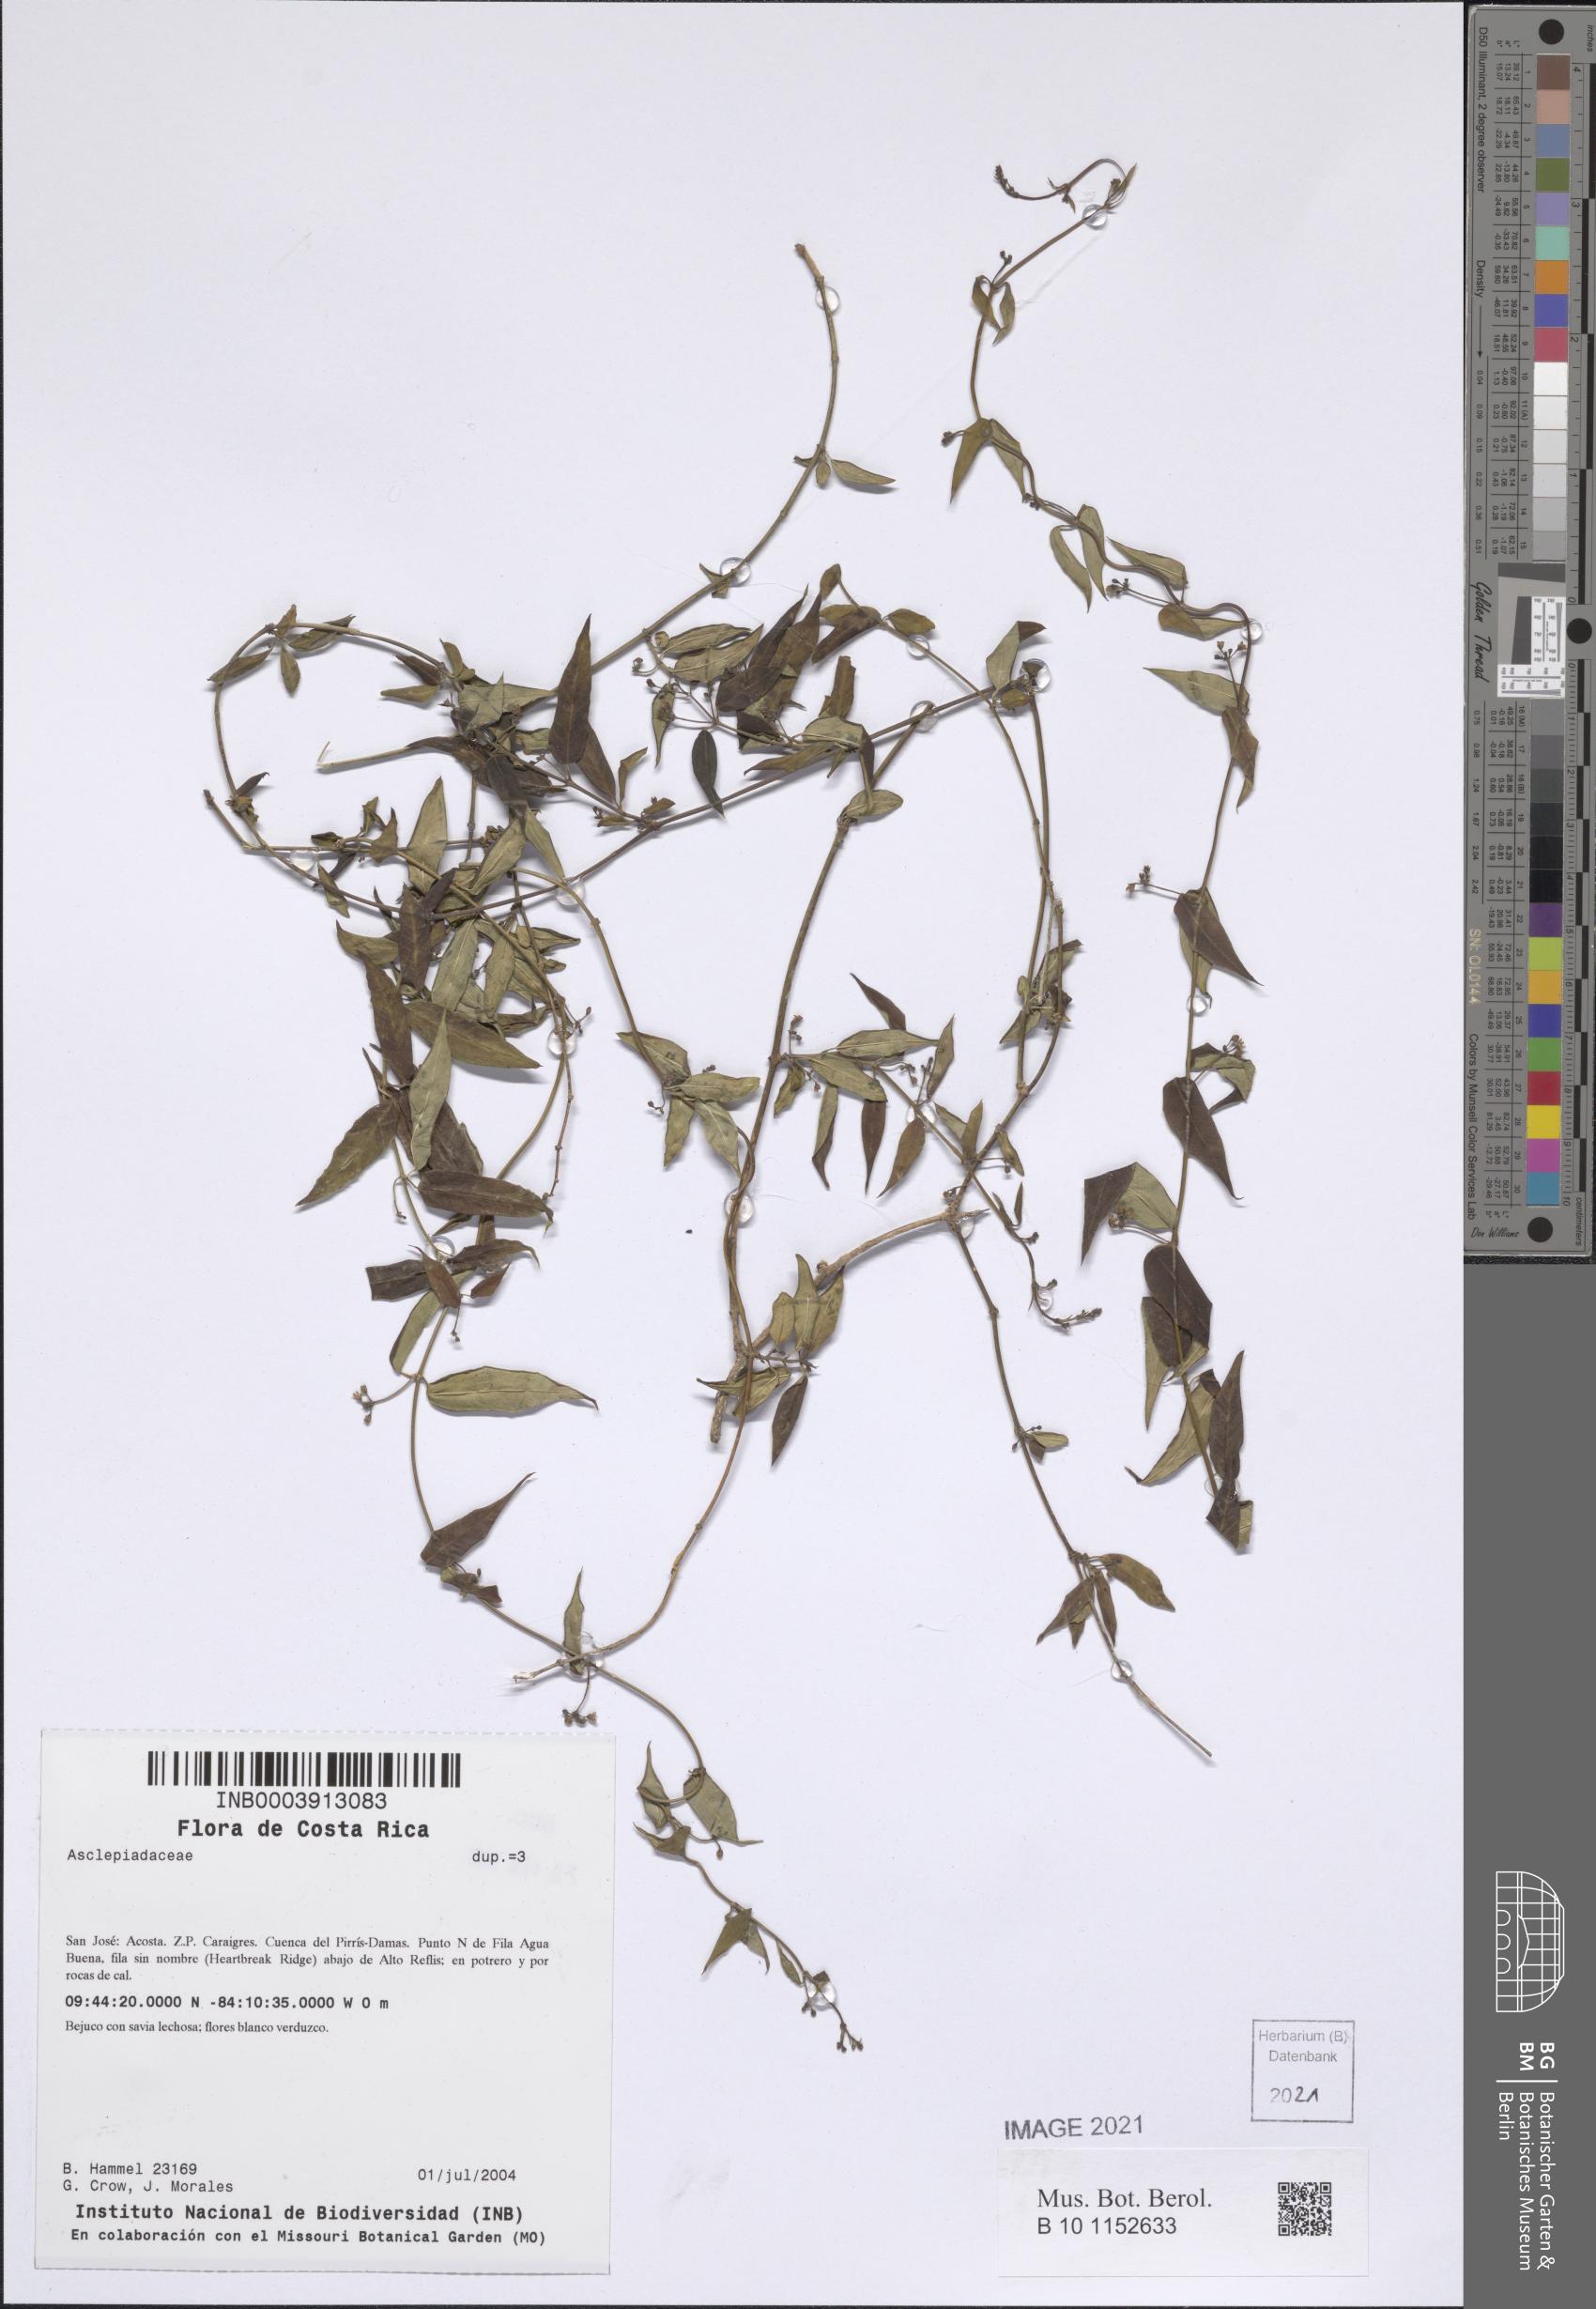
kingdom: Plantae
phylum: Tracheophyta
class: Magnoliopsida
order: Gentianales
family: Apocynaceae
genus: Metastelma
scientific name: Metastelma sepicola
